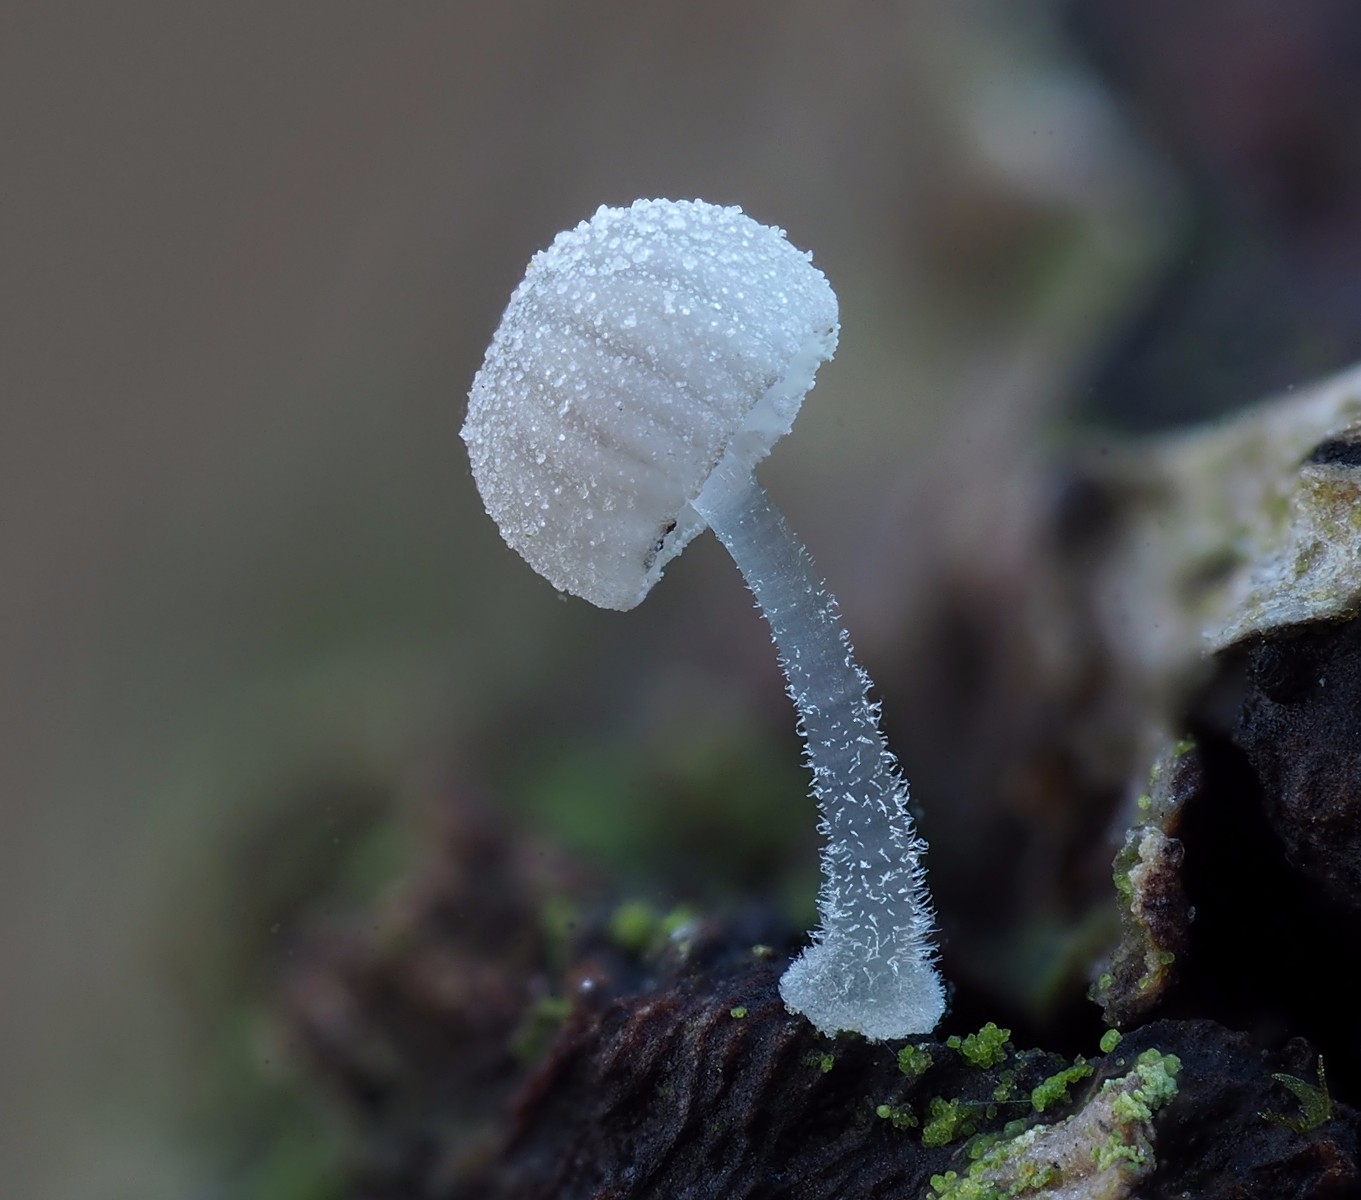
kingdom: Fungi
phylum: Basidiomycota
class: Agaricomycetes
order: Agaricales
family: Mycenaceae
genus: Mycena
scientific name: Mycena tenerrima
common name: pudret huesvamp
